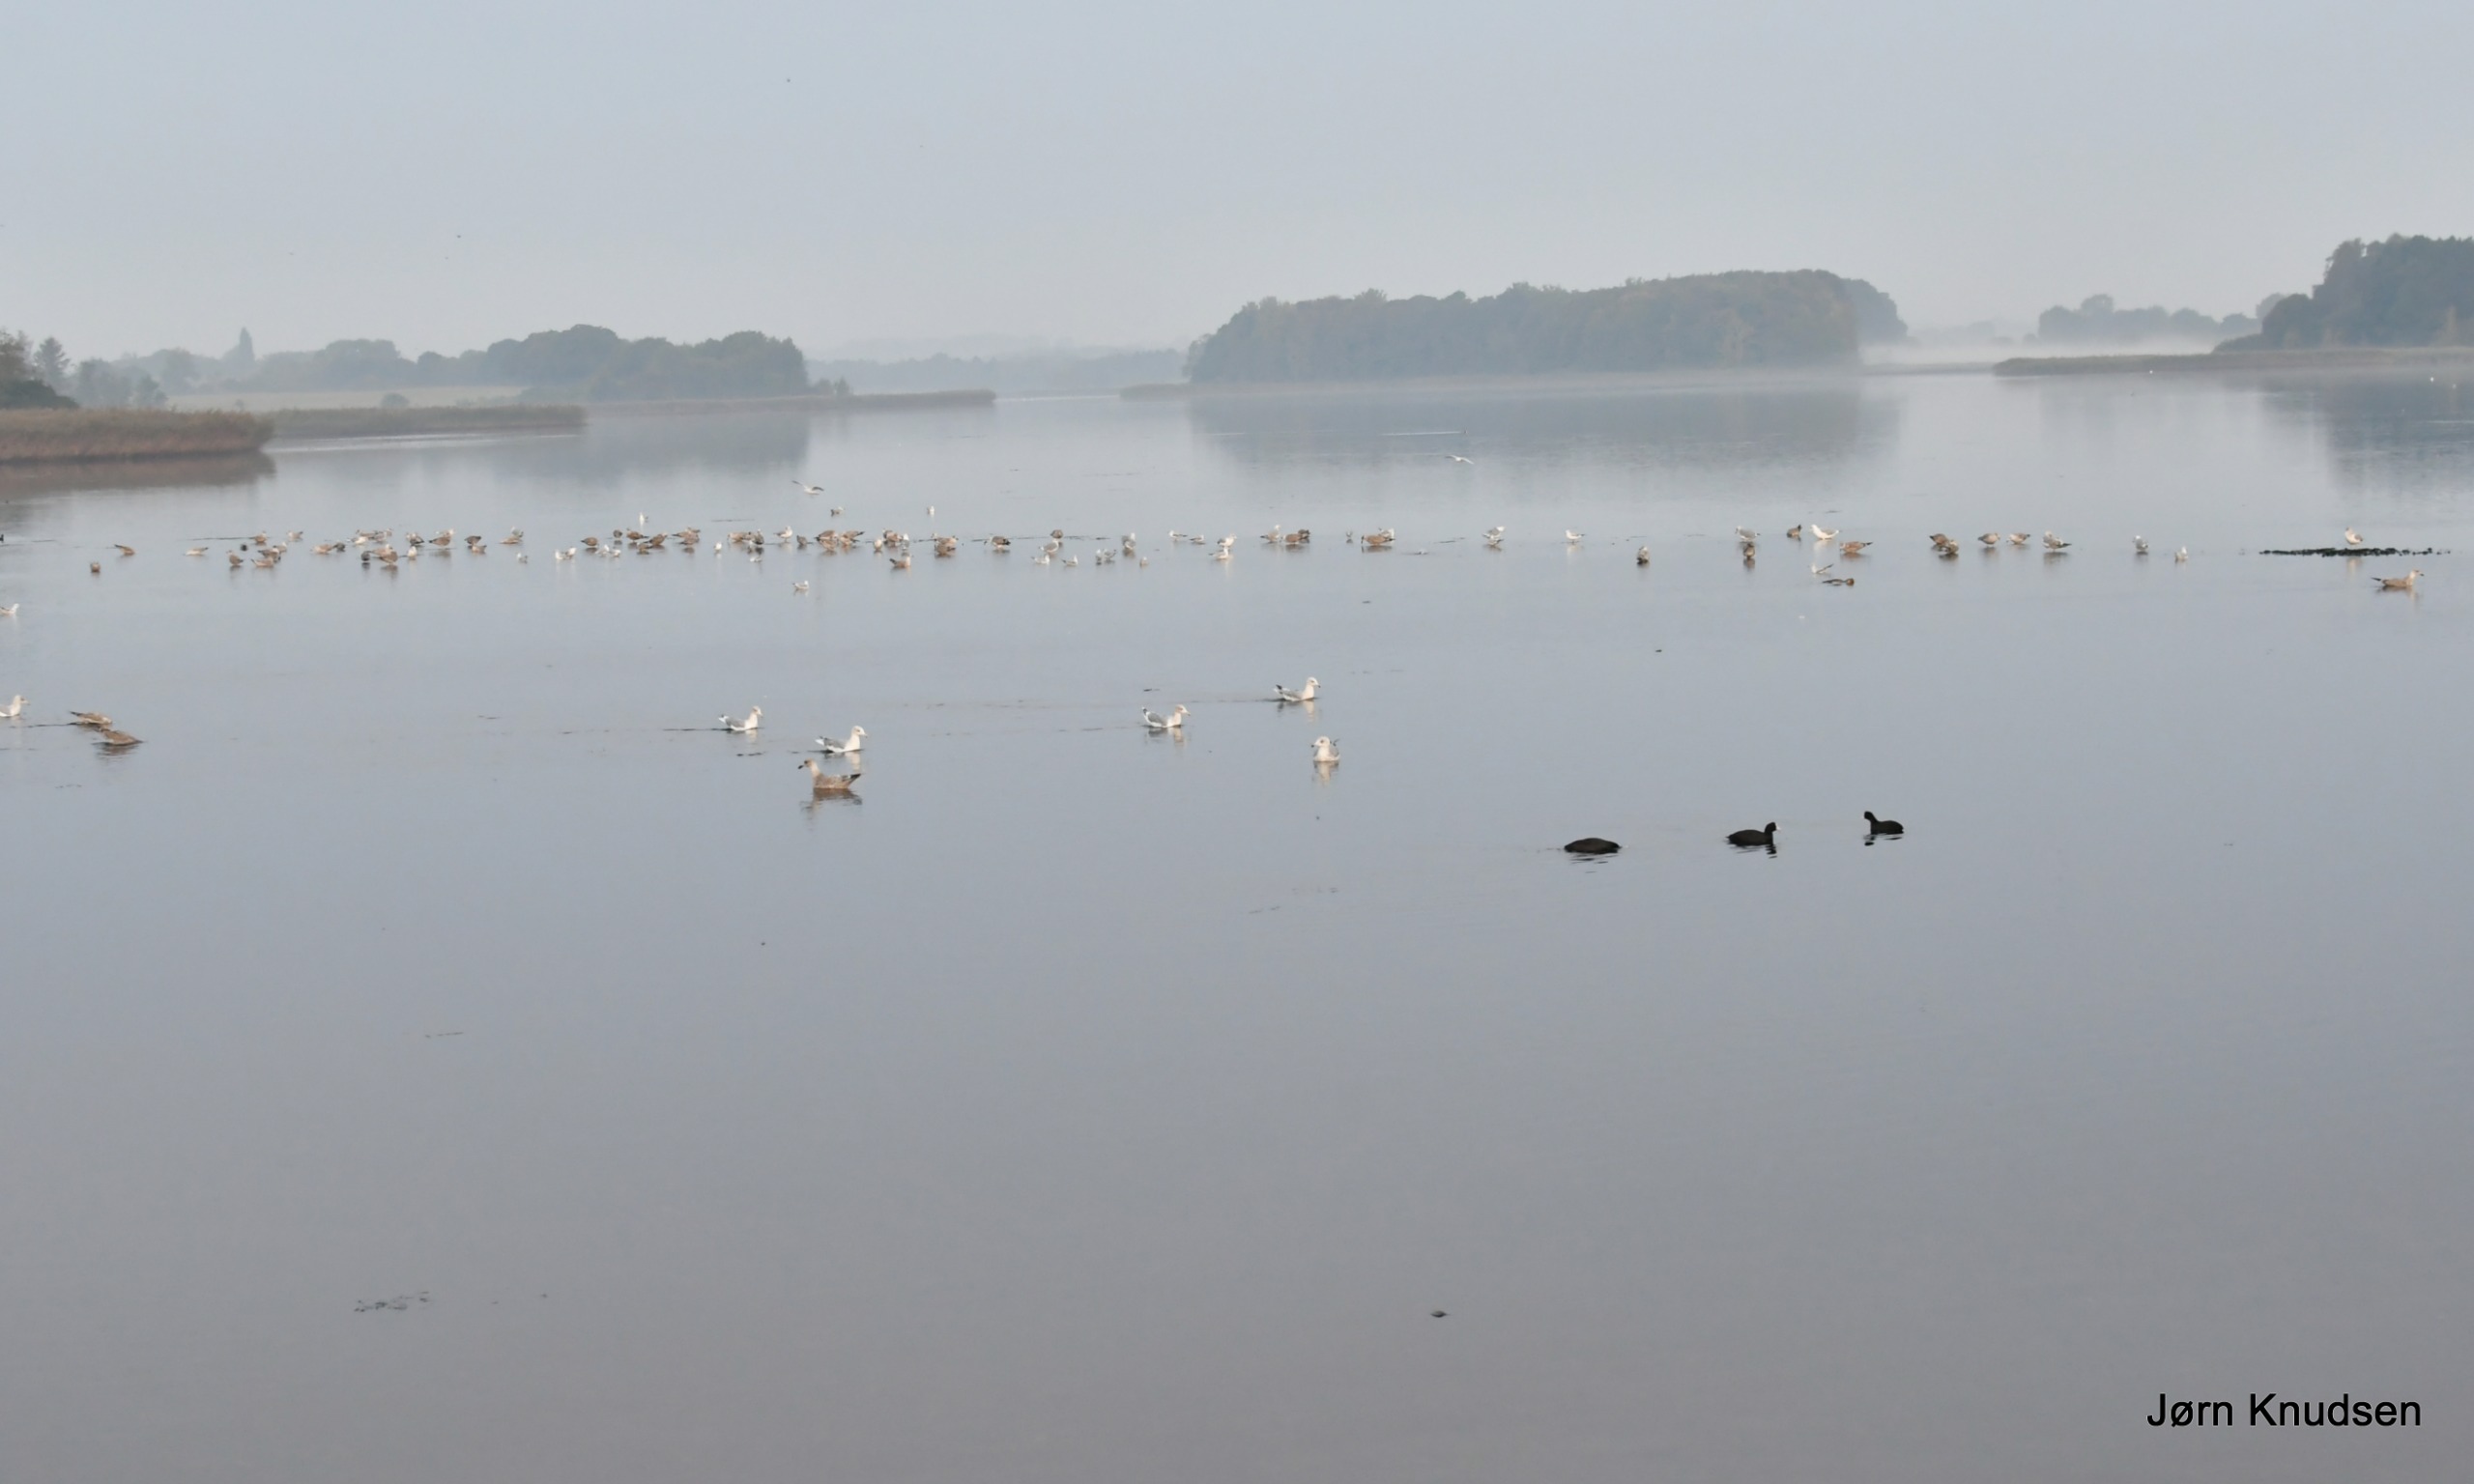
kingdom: Animalia
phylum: Chordata
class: Aves
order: Charadriiformes
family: Laridae
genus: Chroicocephalus
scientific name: Chroicocephalus ridibundus
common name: Hættemåge
